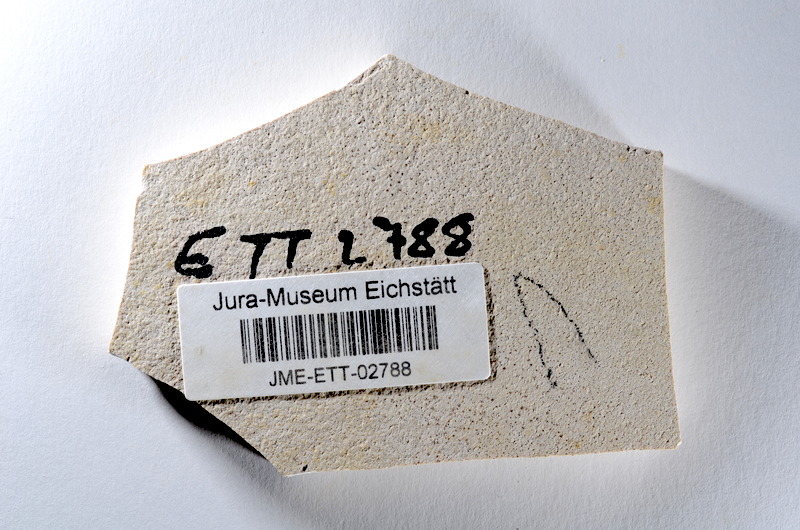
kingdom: Animalia
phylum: Chordata
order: Salmoniformes
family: Orthogonikleithridae
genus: Orthogonikleithrus
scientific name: Orthogonikleithrus hoelli
